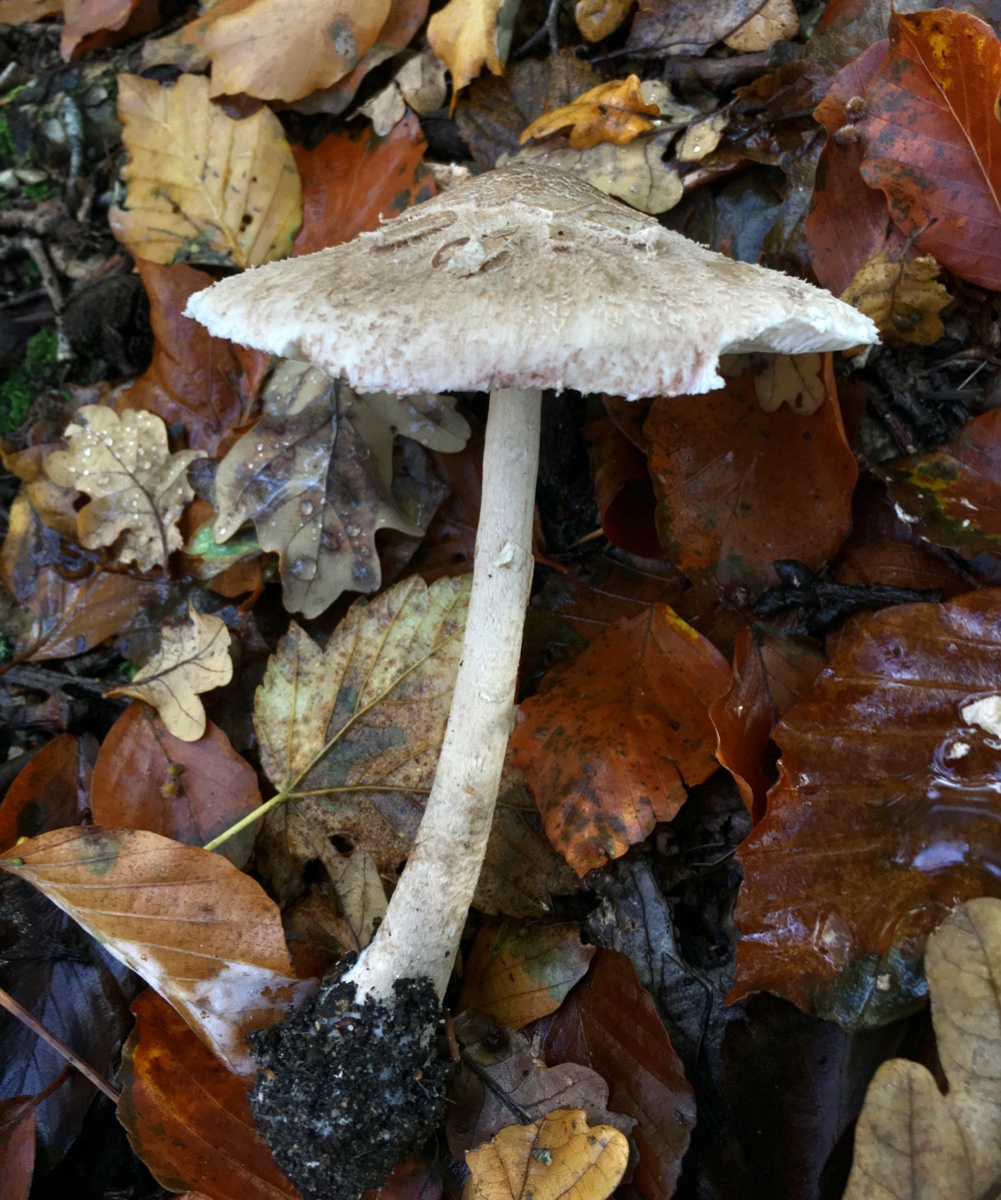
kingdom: Fungi
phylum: Basidiomycota
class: Agaricomycetes
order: Agaricales
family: Agaricaceae
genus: Macrolepiota
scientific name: Macrolepiota mastoidea
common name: puklet kæmpeparasolhat
